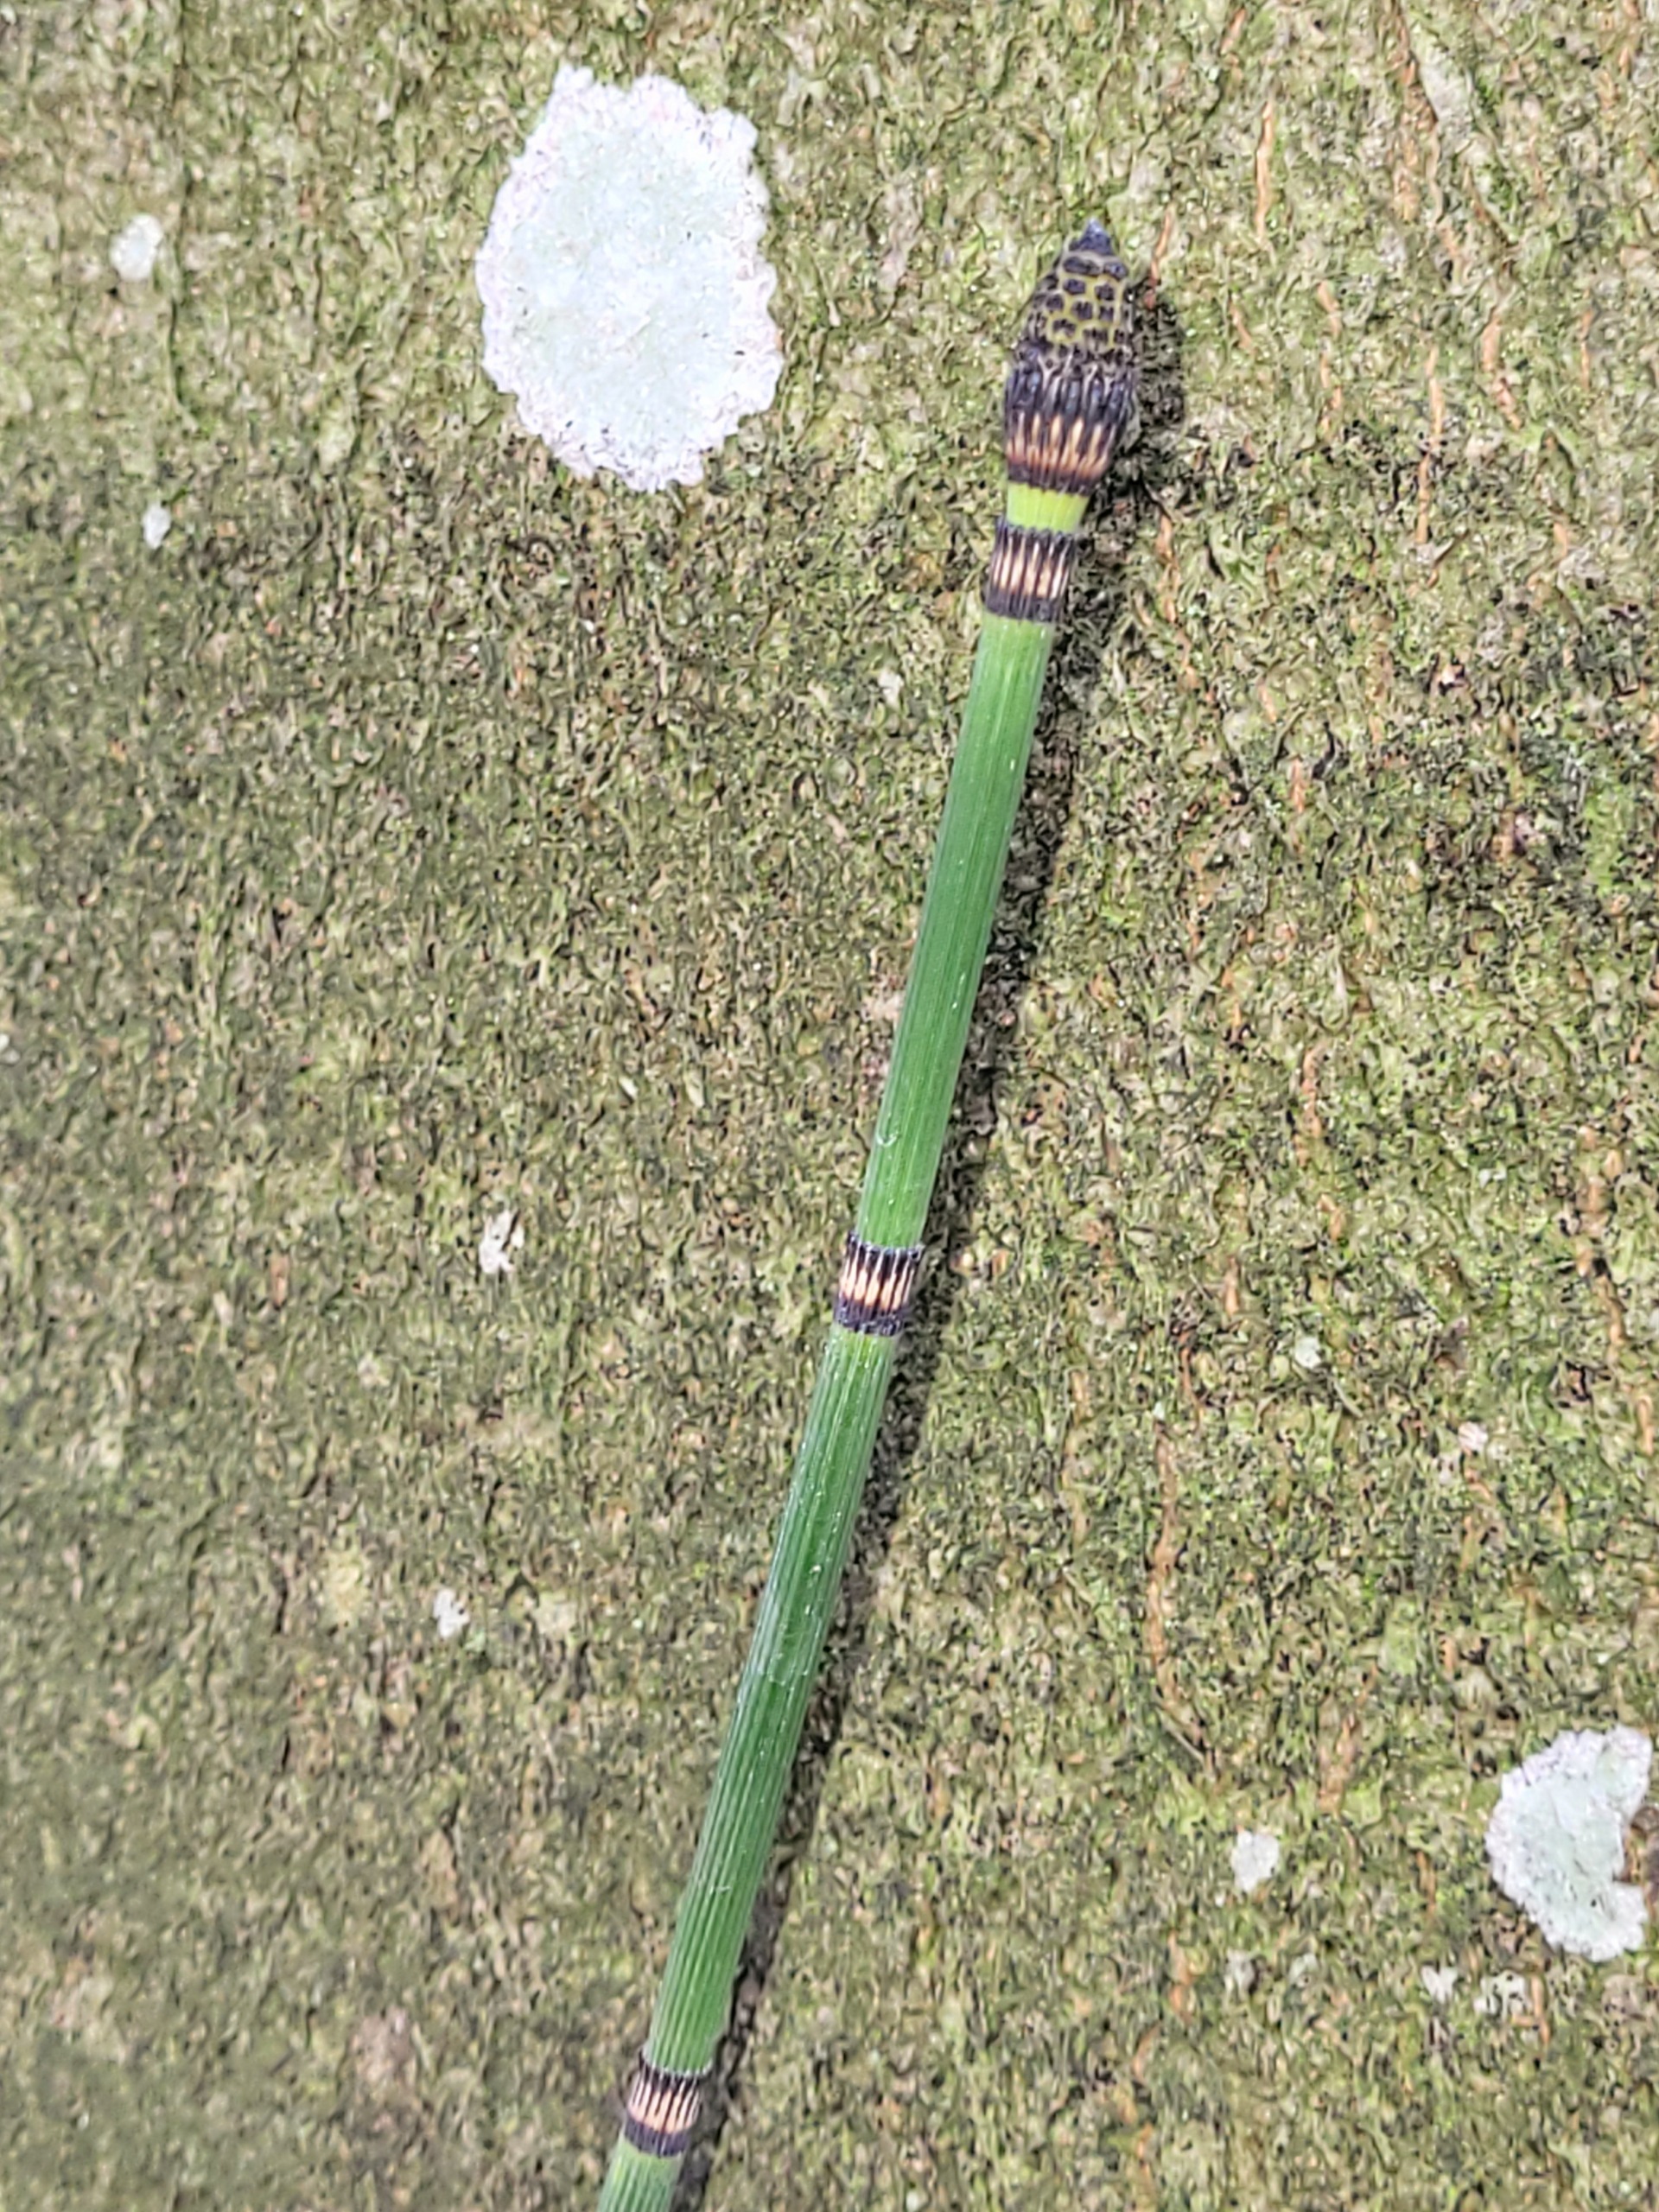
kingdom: Plantae
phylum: Tracheophyta
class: Polypodiopsida
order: Equisetales
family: Equisetaceae
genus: Equisetum
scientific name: Equisetum hyemale
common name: Skavgræs
